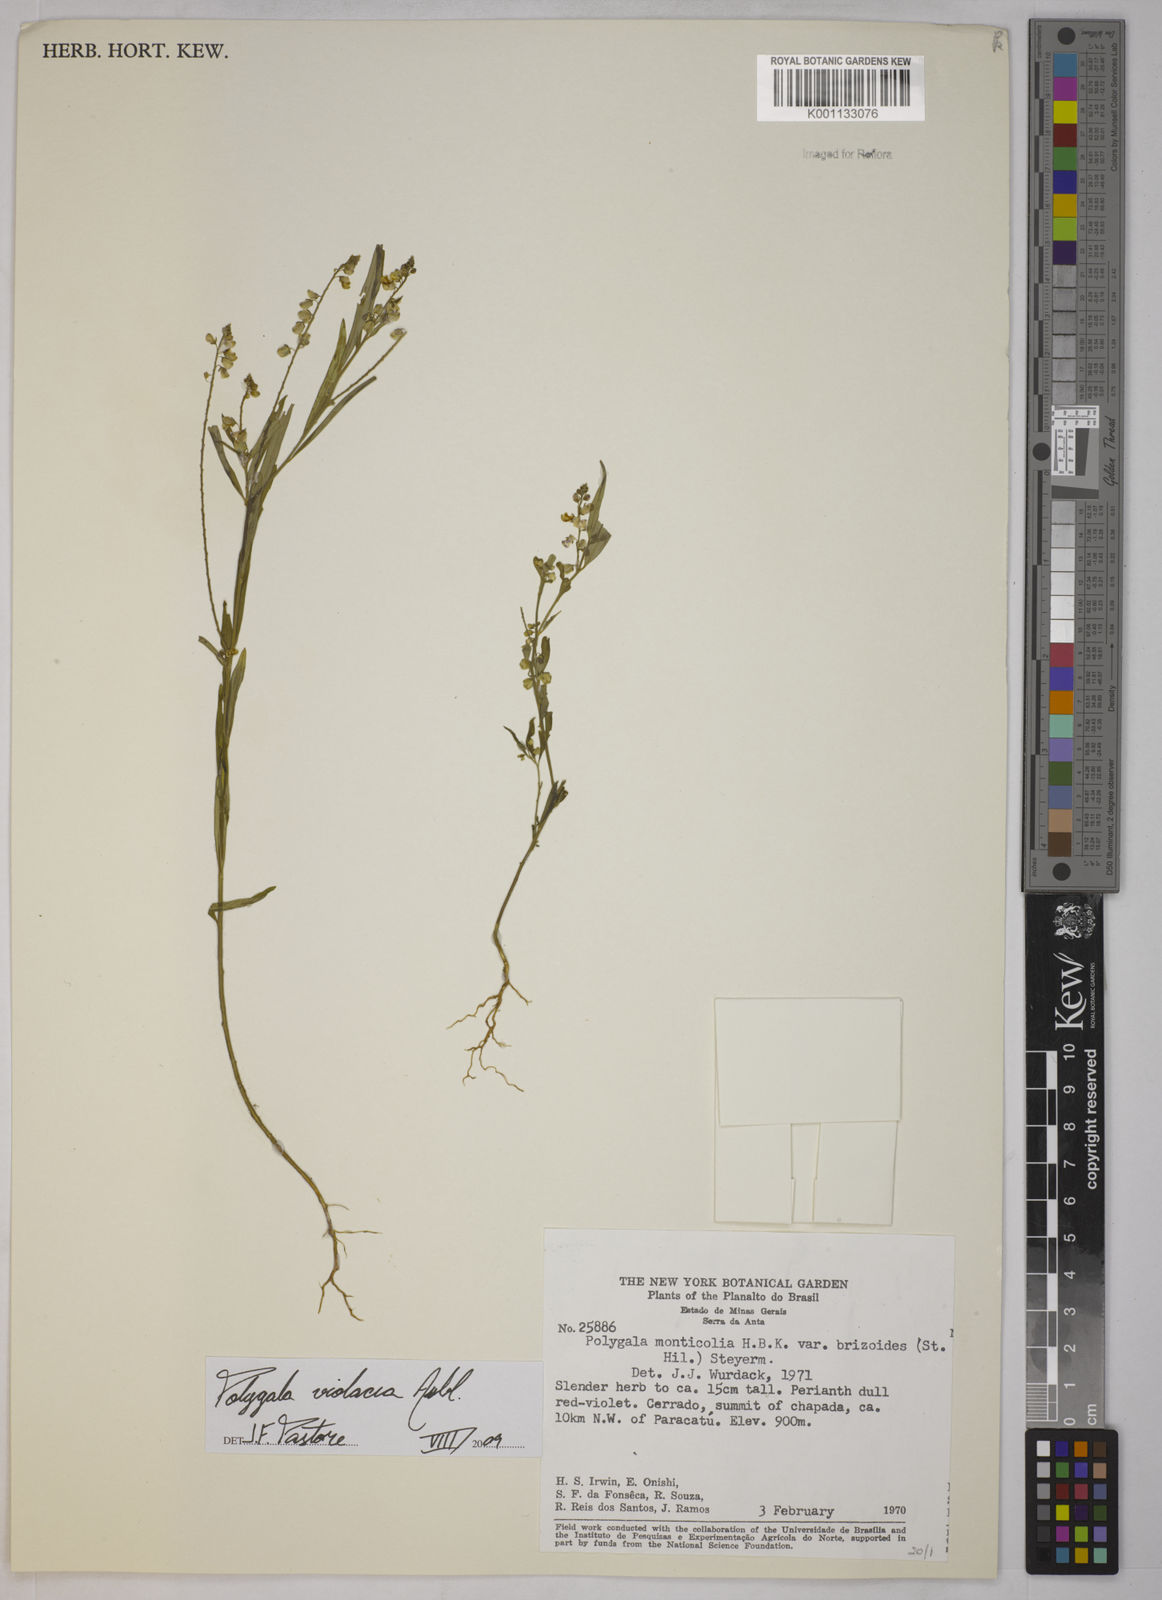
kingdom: Plantae
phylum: Tracheophyta
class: Magnoliopsida
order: Fabales
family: Polygalaceae
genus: Polygala
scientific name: Polygala
